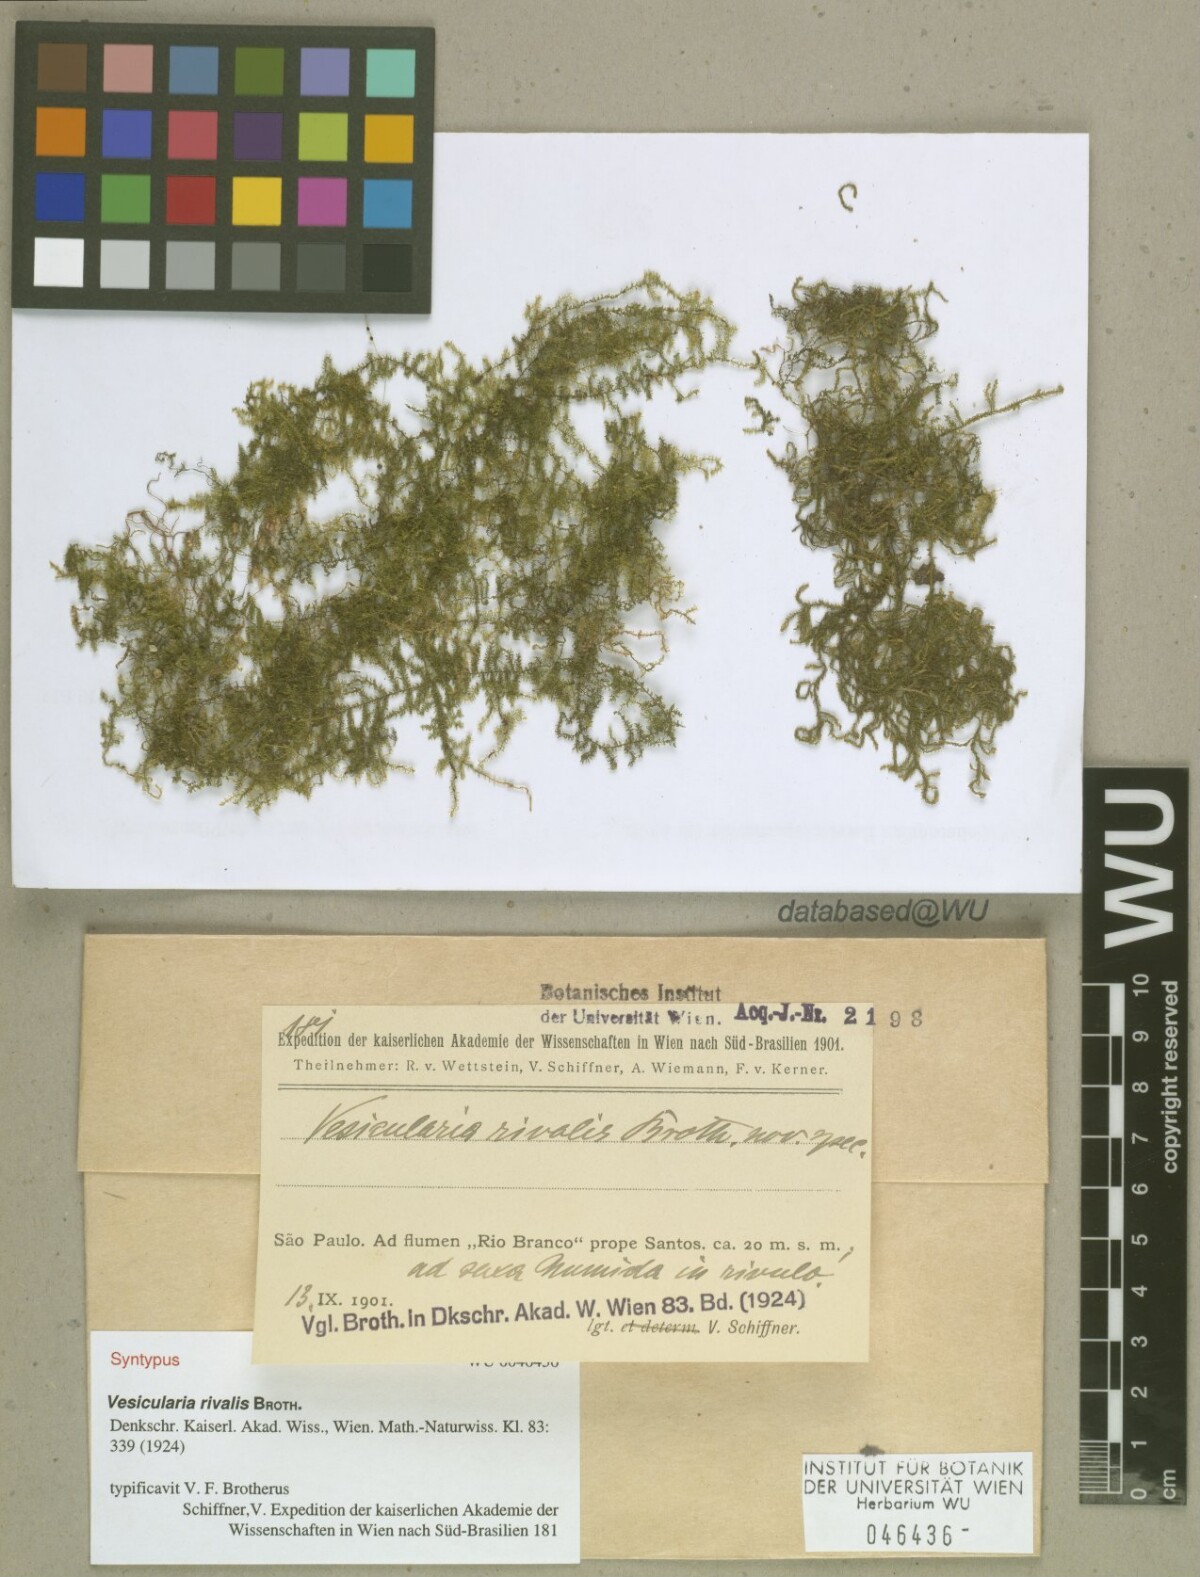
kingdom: Plantae
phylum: Bryophyta
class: Bryopsida
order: Hypnales
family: Hypnaceae
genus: Vesicularia
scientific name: Vesicularia rivalis
